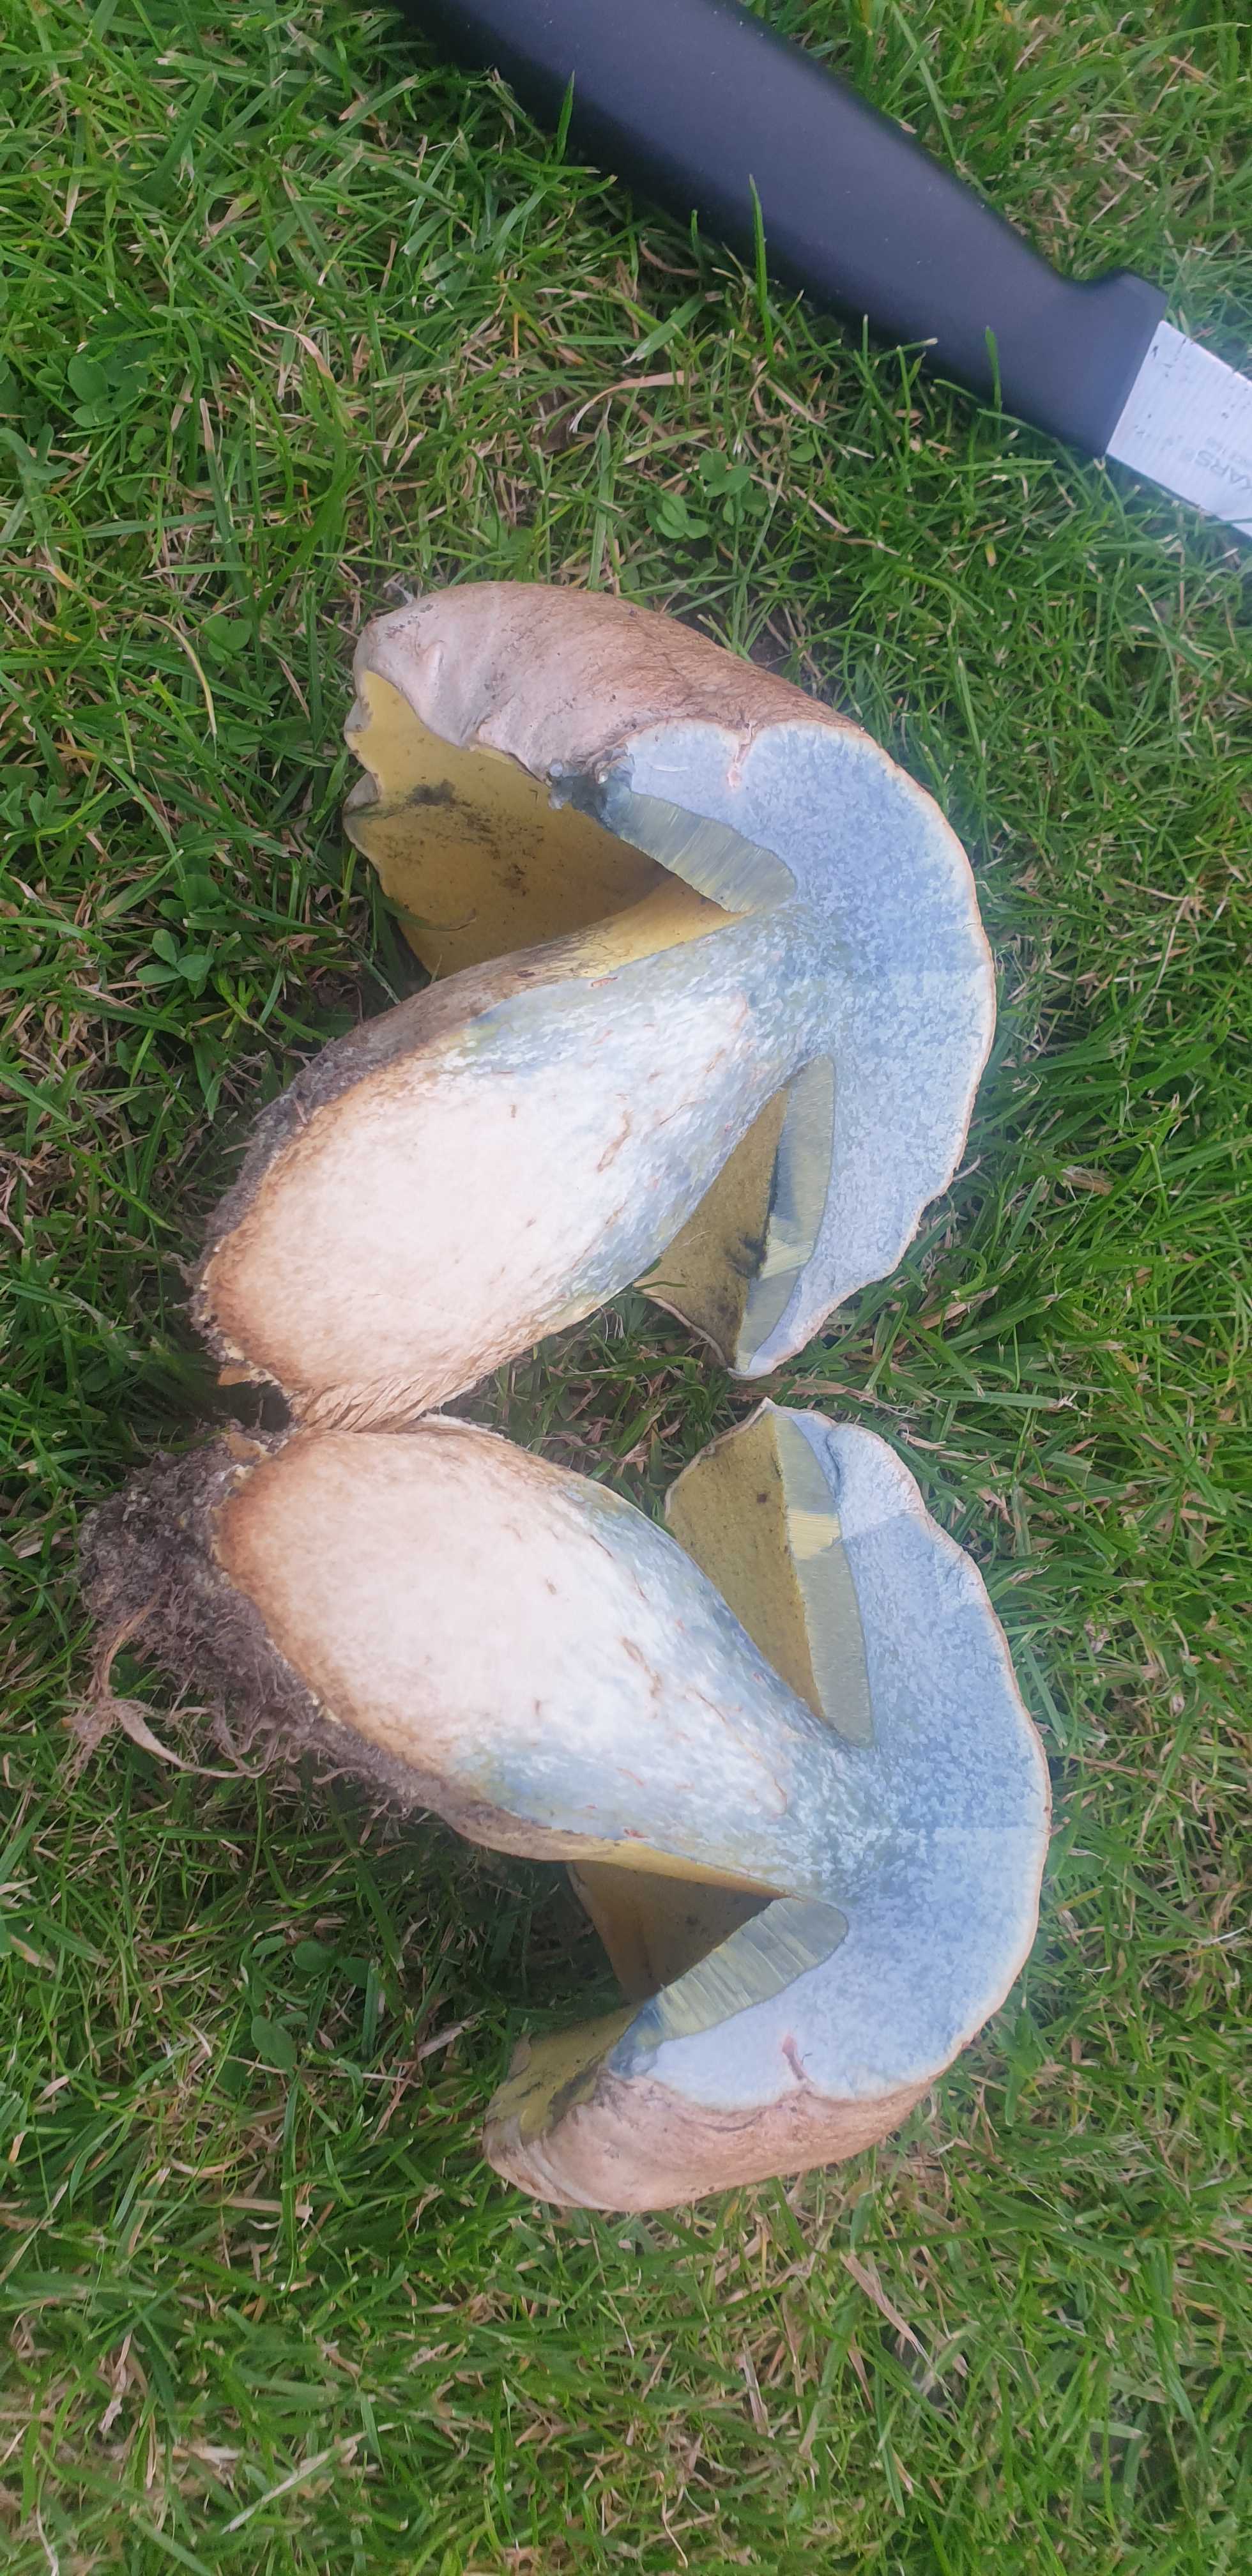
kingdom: Fungi
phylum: Basidiomycota
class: Agaricomycetes
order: Boletales
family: Boletaceae
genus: Caloboletus
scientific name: Caloboletus radicans
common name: rod-rørhat
